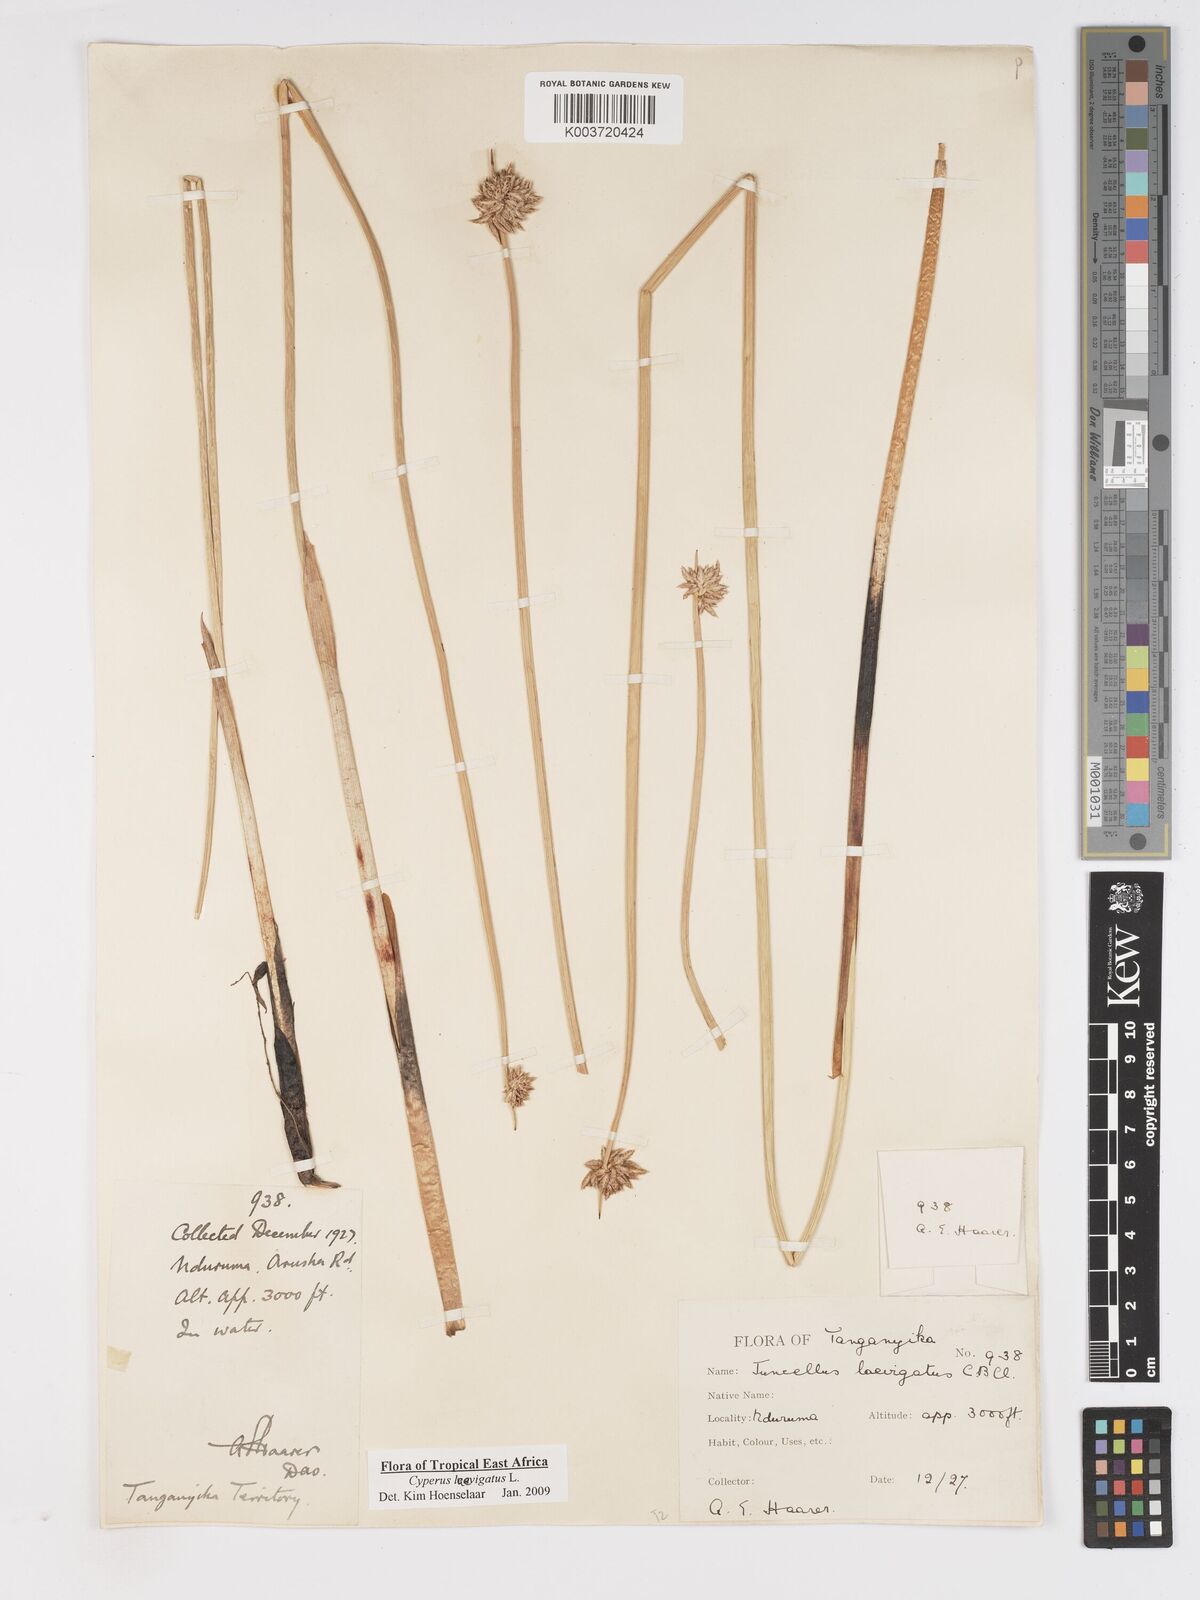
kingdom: Plantae
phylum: Tracheophyta
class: Liliopsida
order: Poales
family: Cyperaceae
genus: Cyperus
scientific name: Cyperus laevigatus
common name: Smooth flat sedge
